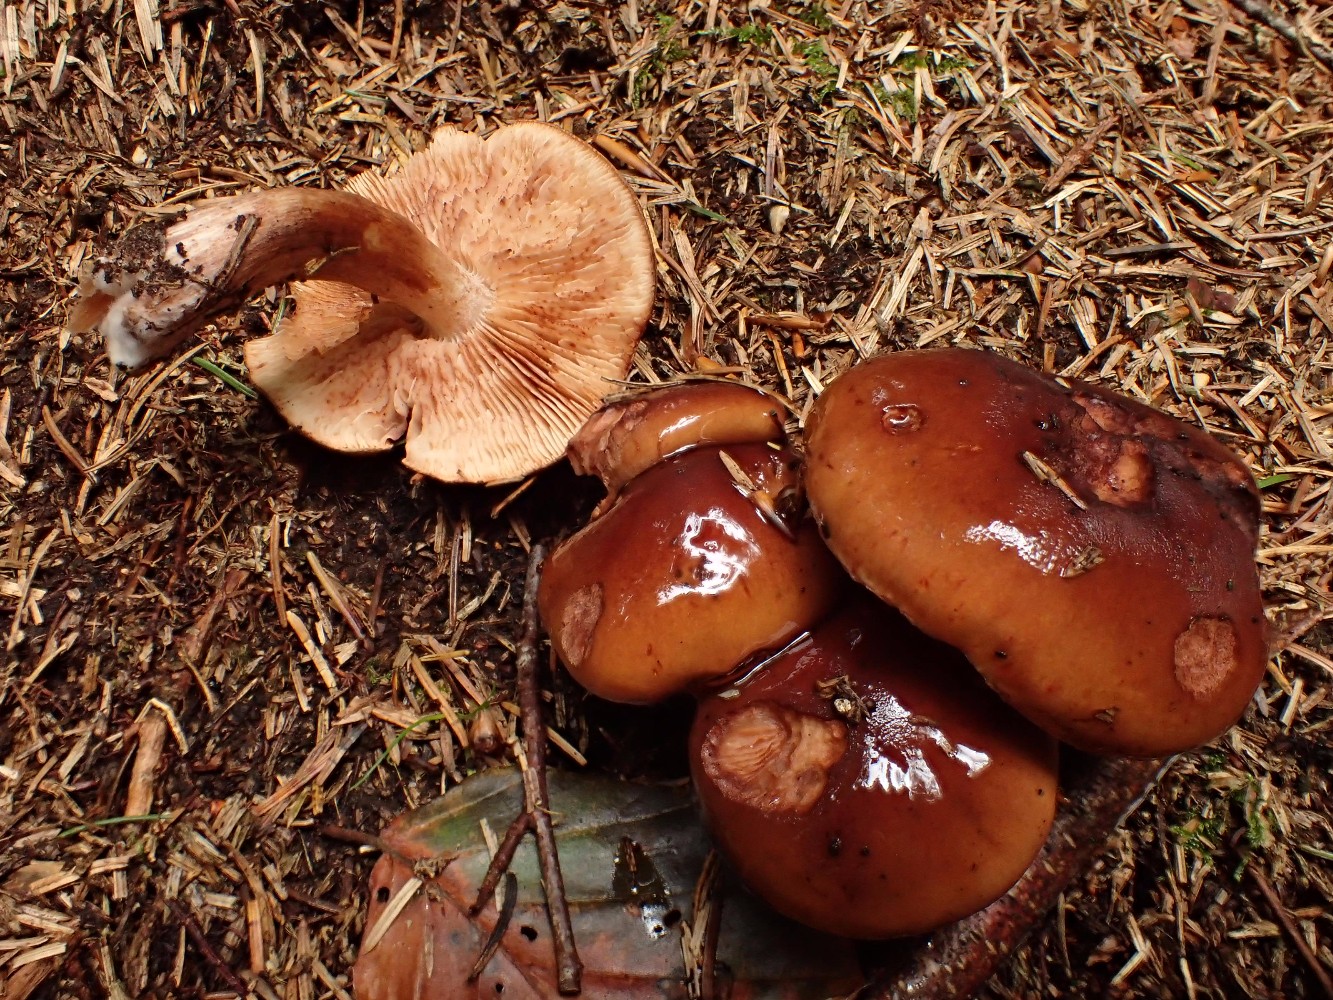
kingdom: Fungi
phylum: Basidiomycota
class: Agaricomycetes
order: Agaricales
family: Tricholomataceae
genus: Tricholoma
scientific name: Tricholoma ustale
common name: sveden ridderhat
